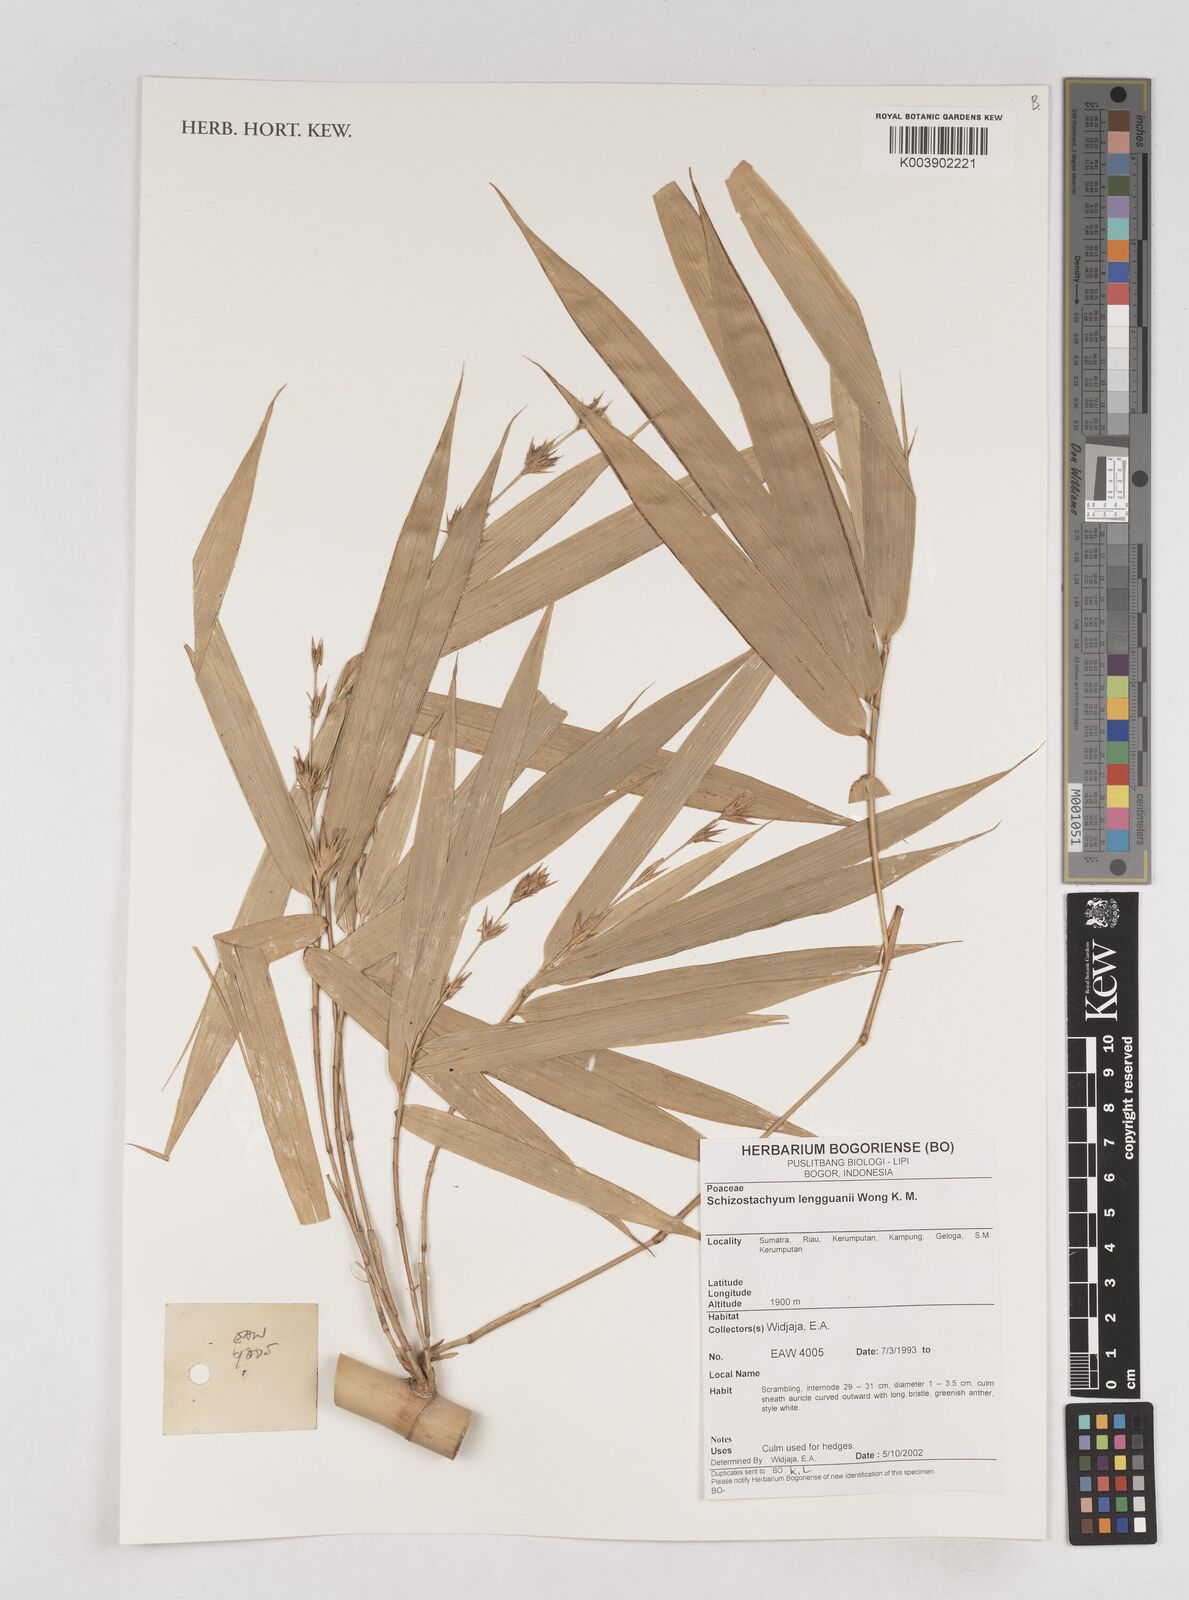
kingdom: Plantae
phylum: Tracheophyta
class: Liliopsida
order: Poales
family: Poaceae
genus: Schizostachyum
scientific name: Schizostachyum lengguanii
